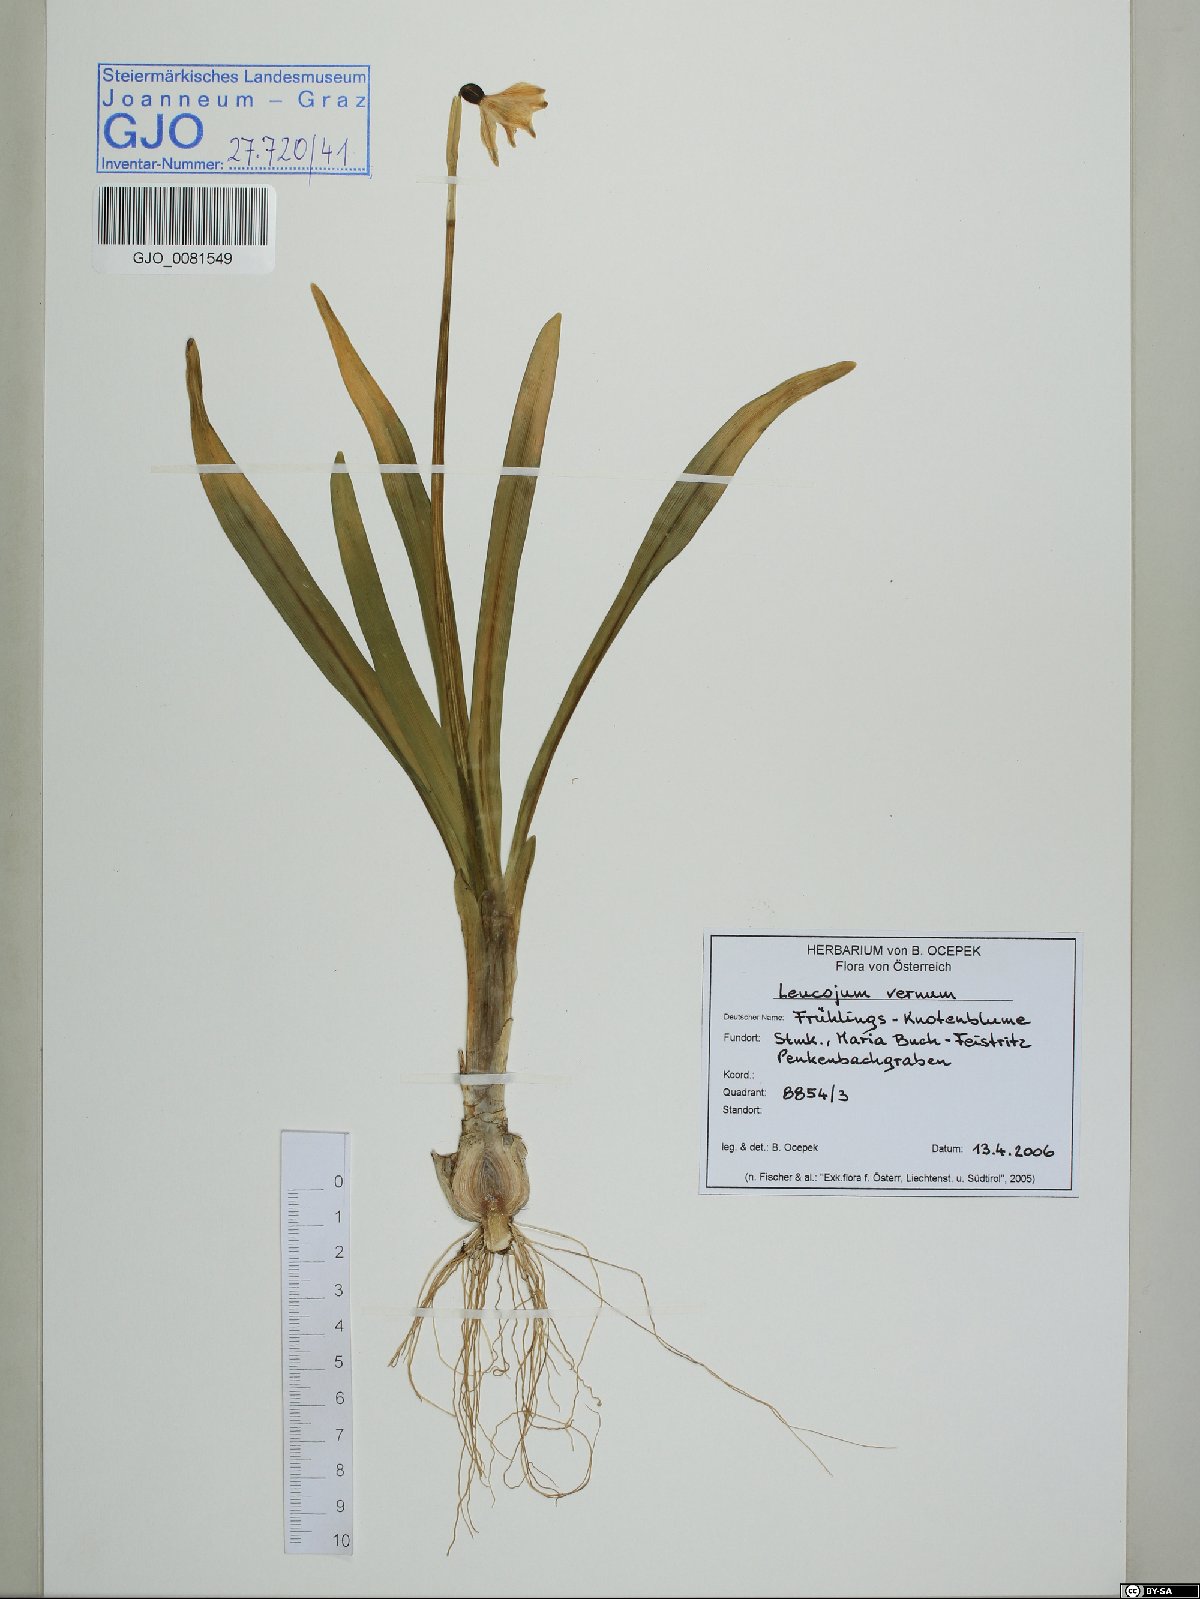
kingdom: Plantae
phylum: Tracheophyta
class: Liliopsida
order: Asparagales
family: Amaryllidaceae
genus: Leucojum
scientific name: Leucojum vernum
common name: Spring snowflake
